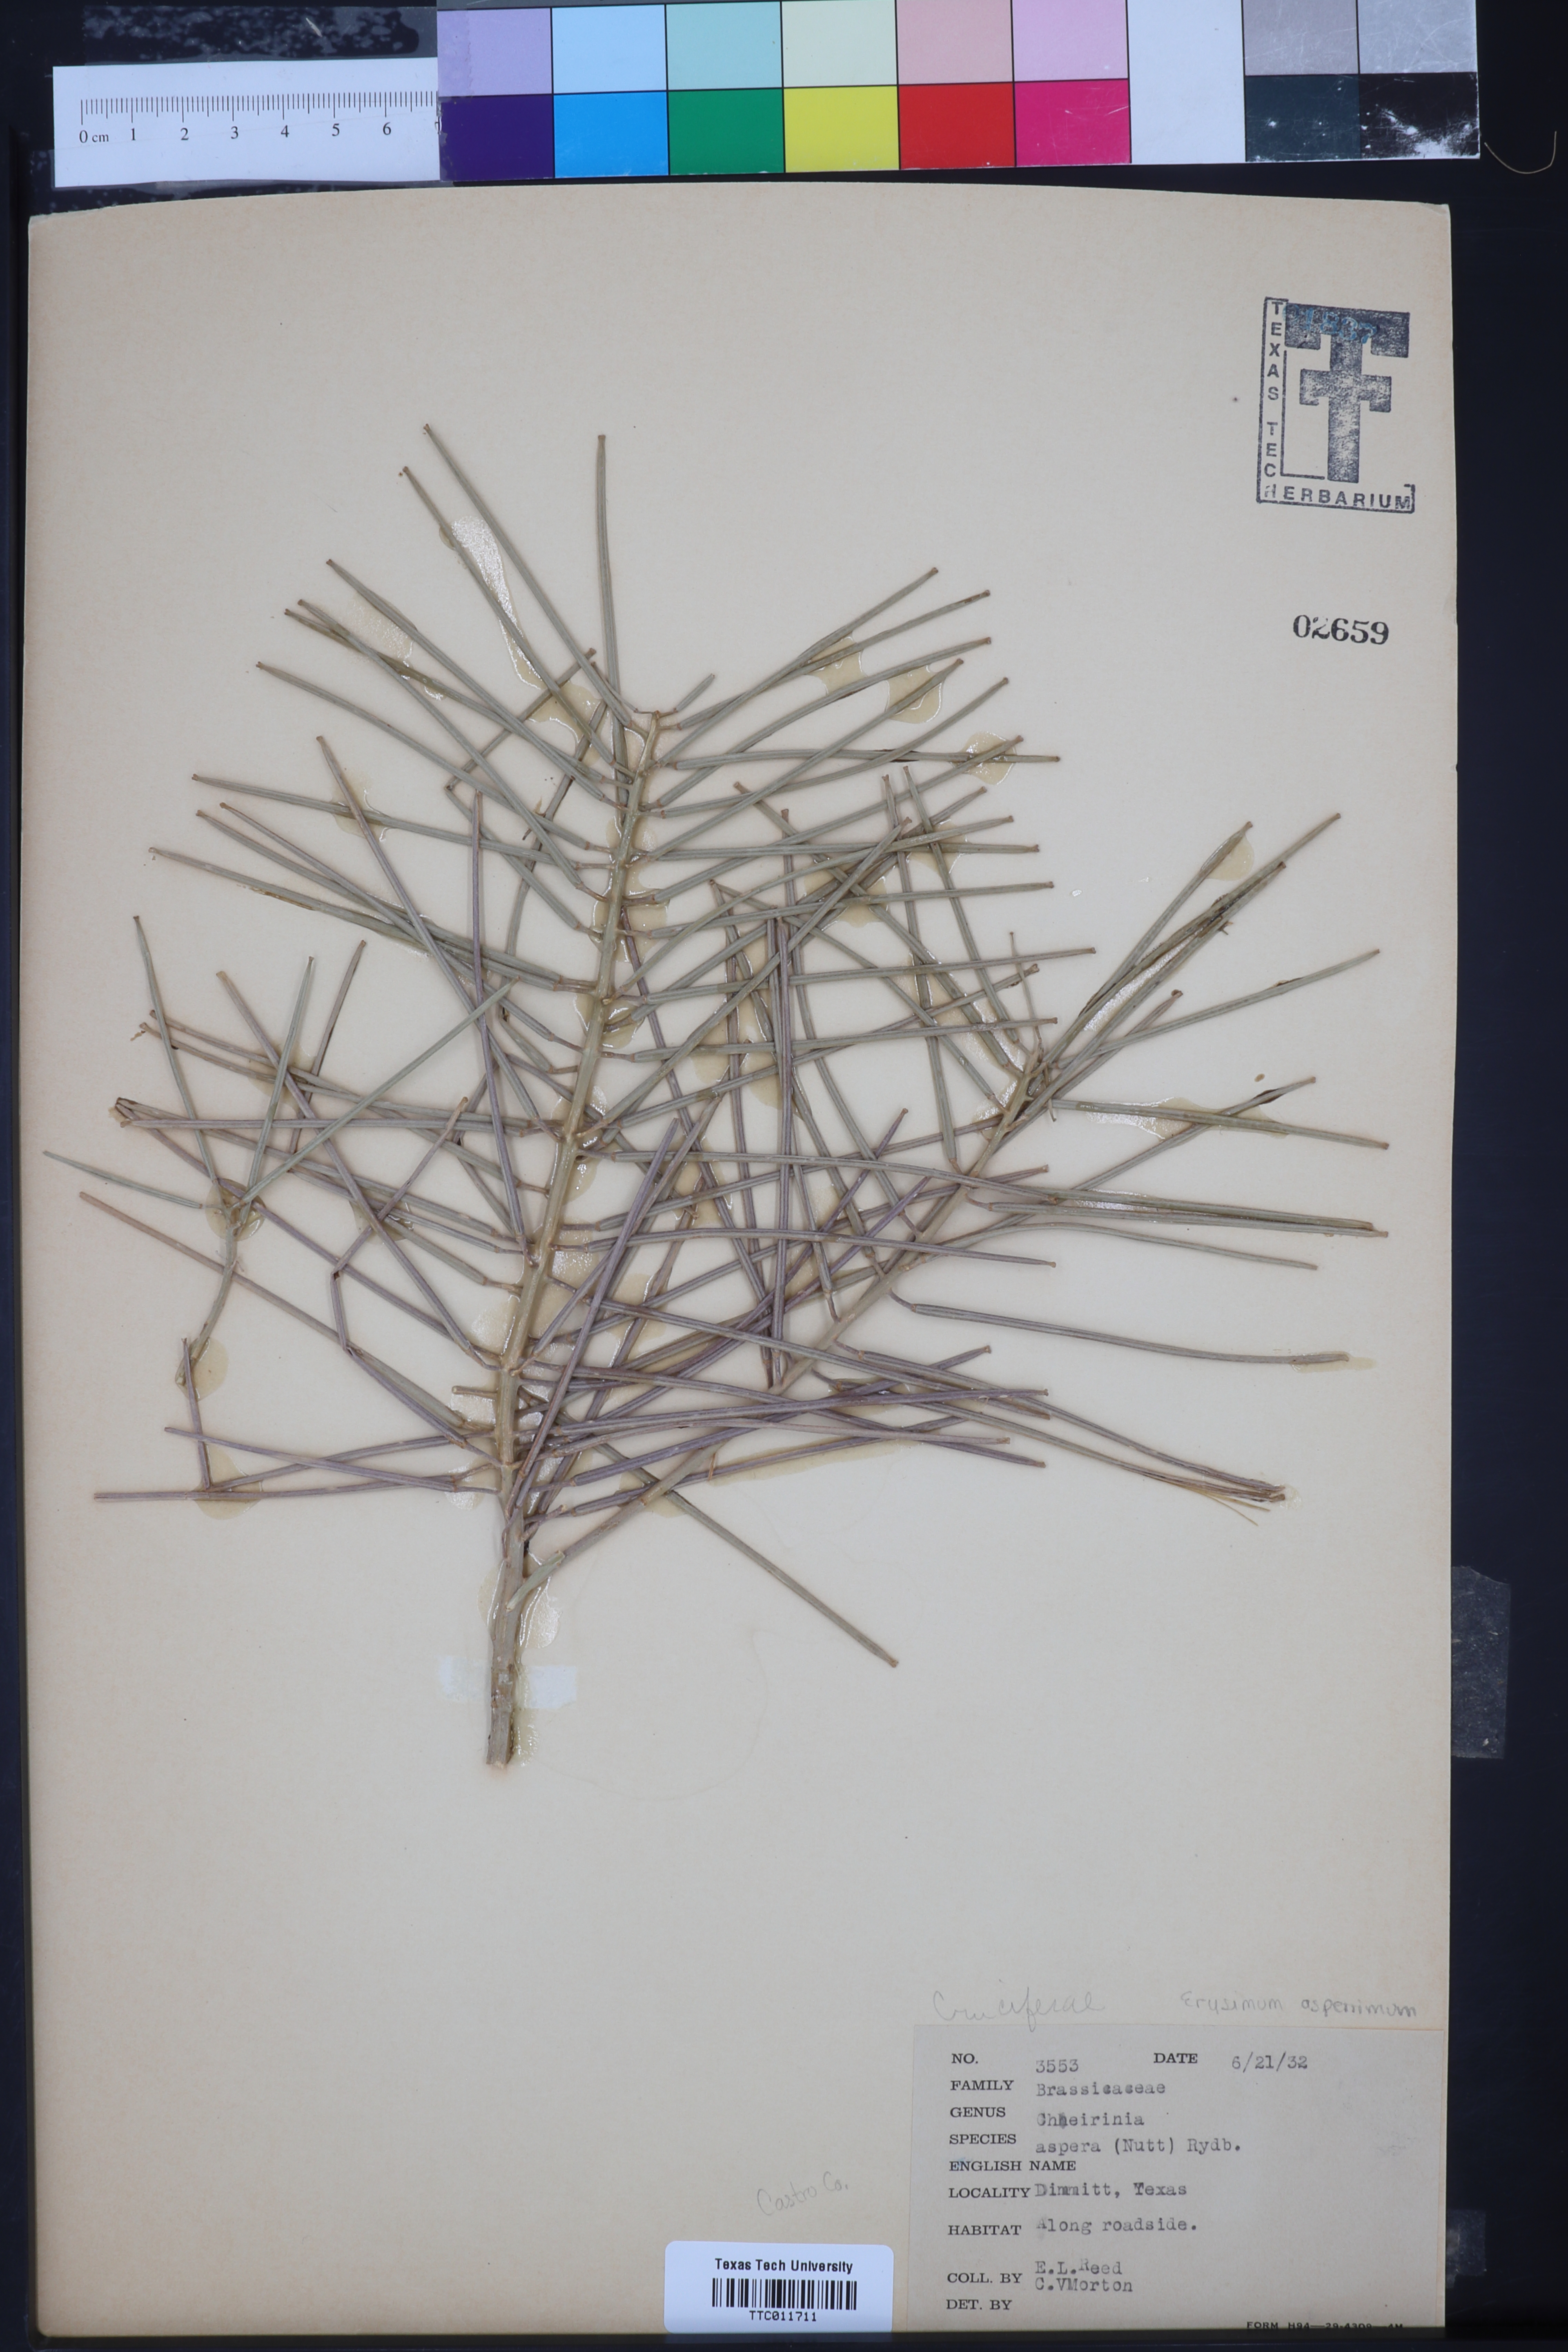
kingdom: Plantae
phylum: Tracheophyta
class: Magnoliopsida
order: Brassicales
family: Brassicaceae
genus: Erysimum
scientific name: Erysimum asperum
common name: Western wallflower
